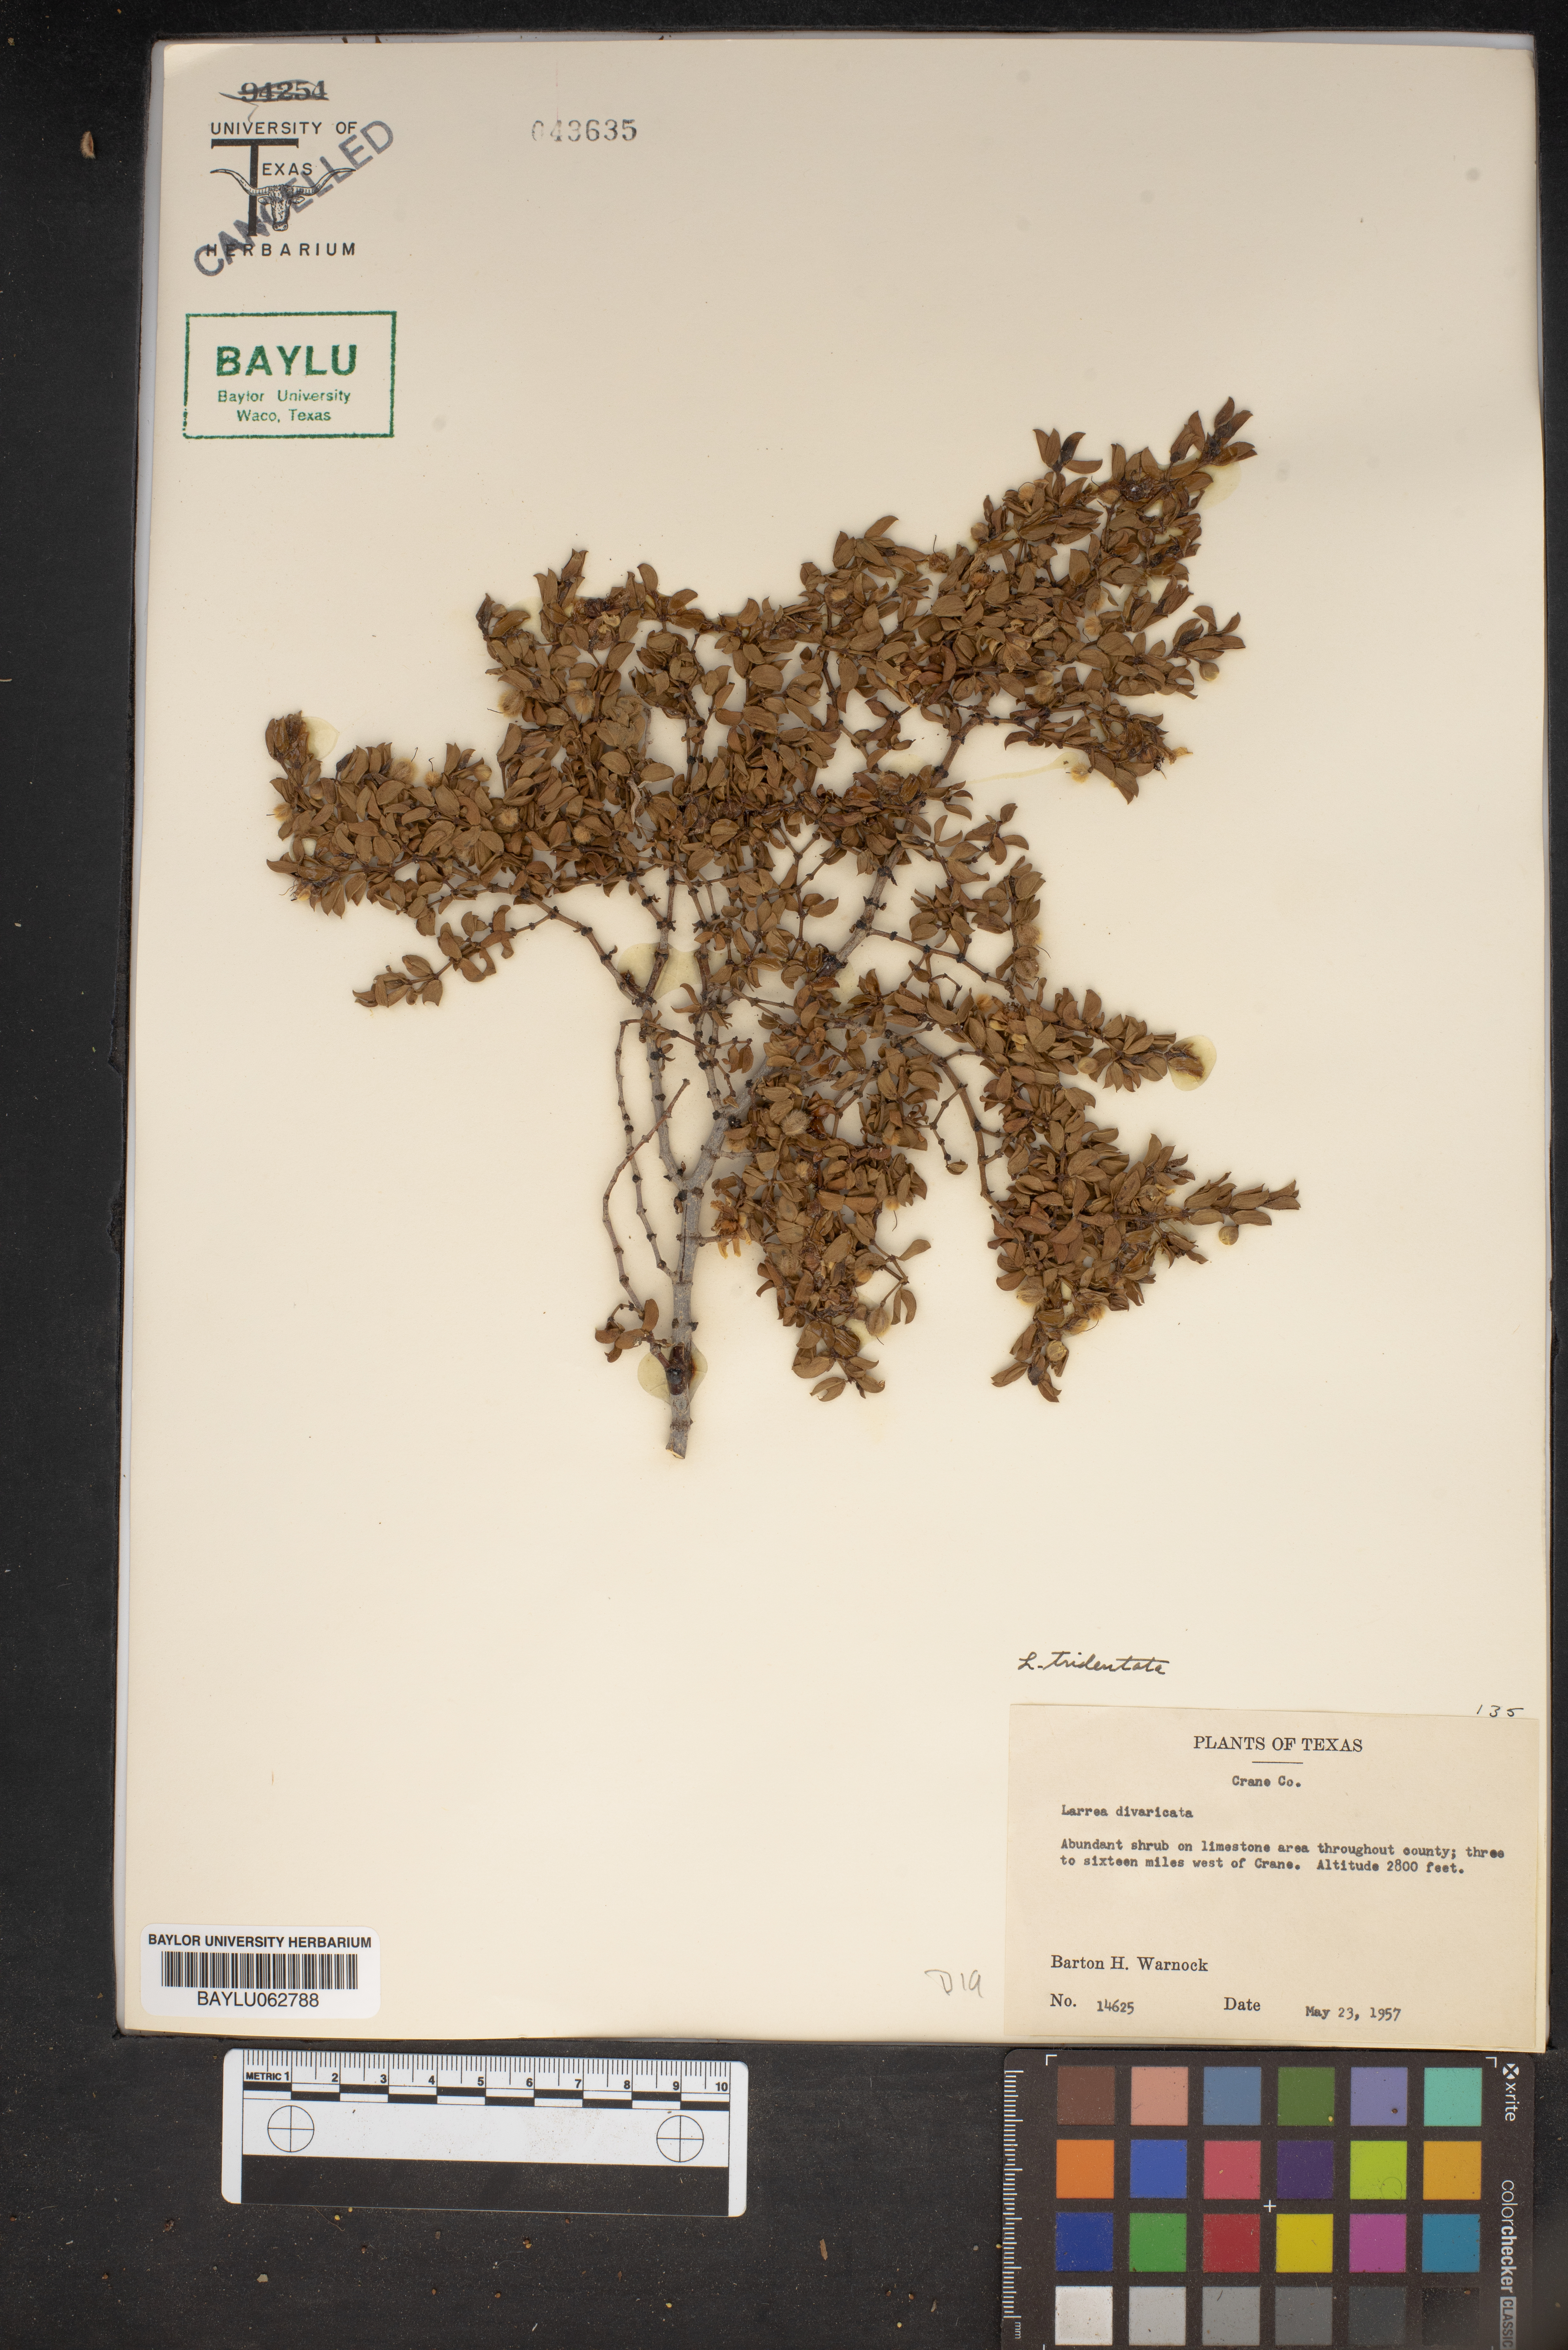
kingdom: Plantae
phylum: Tracheophyta
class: Magnoliopsida
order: Zygophyllales
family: Zygophyllaceae
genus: Larrea
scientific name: Larrea divaricata
